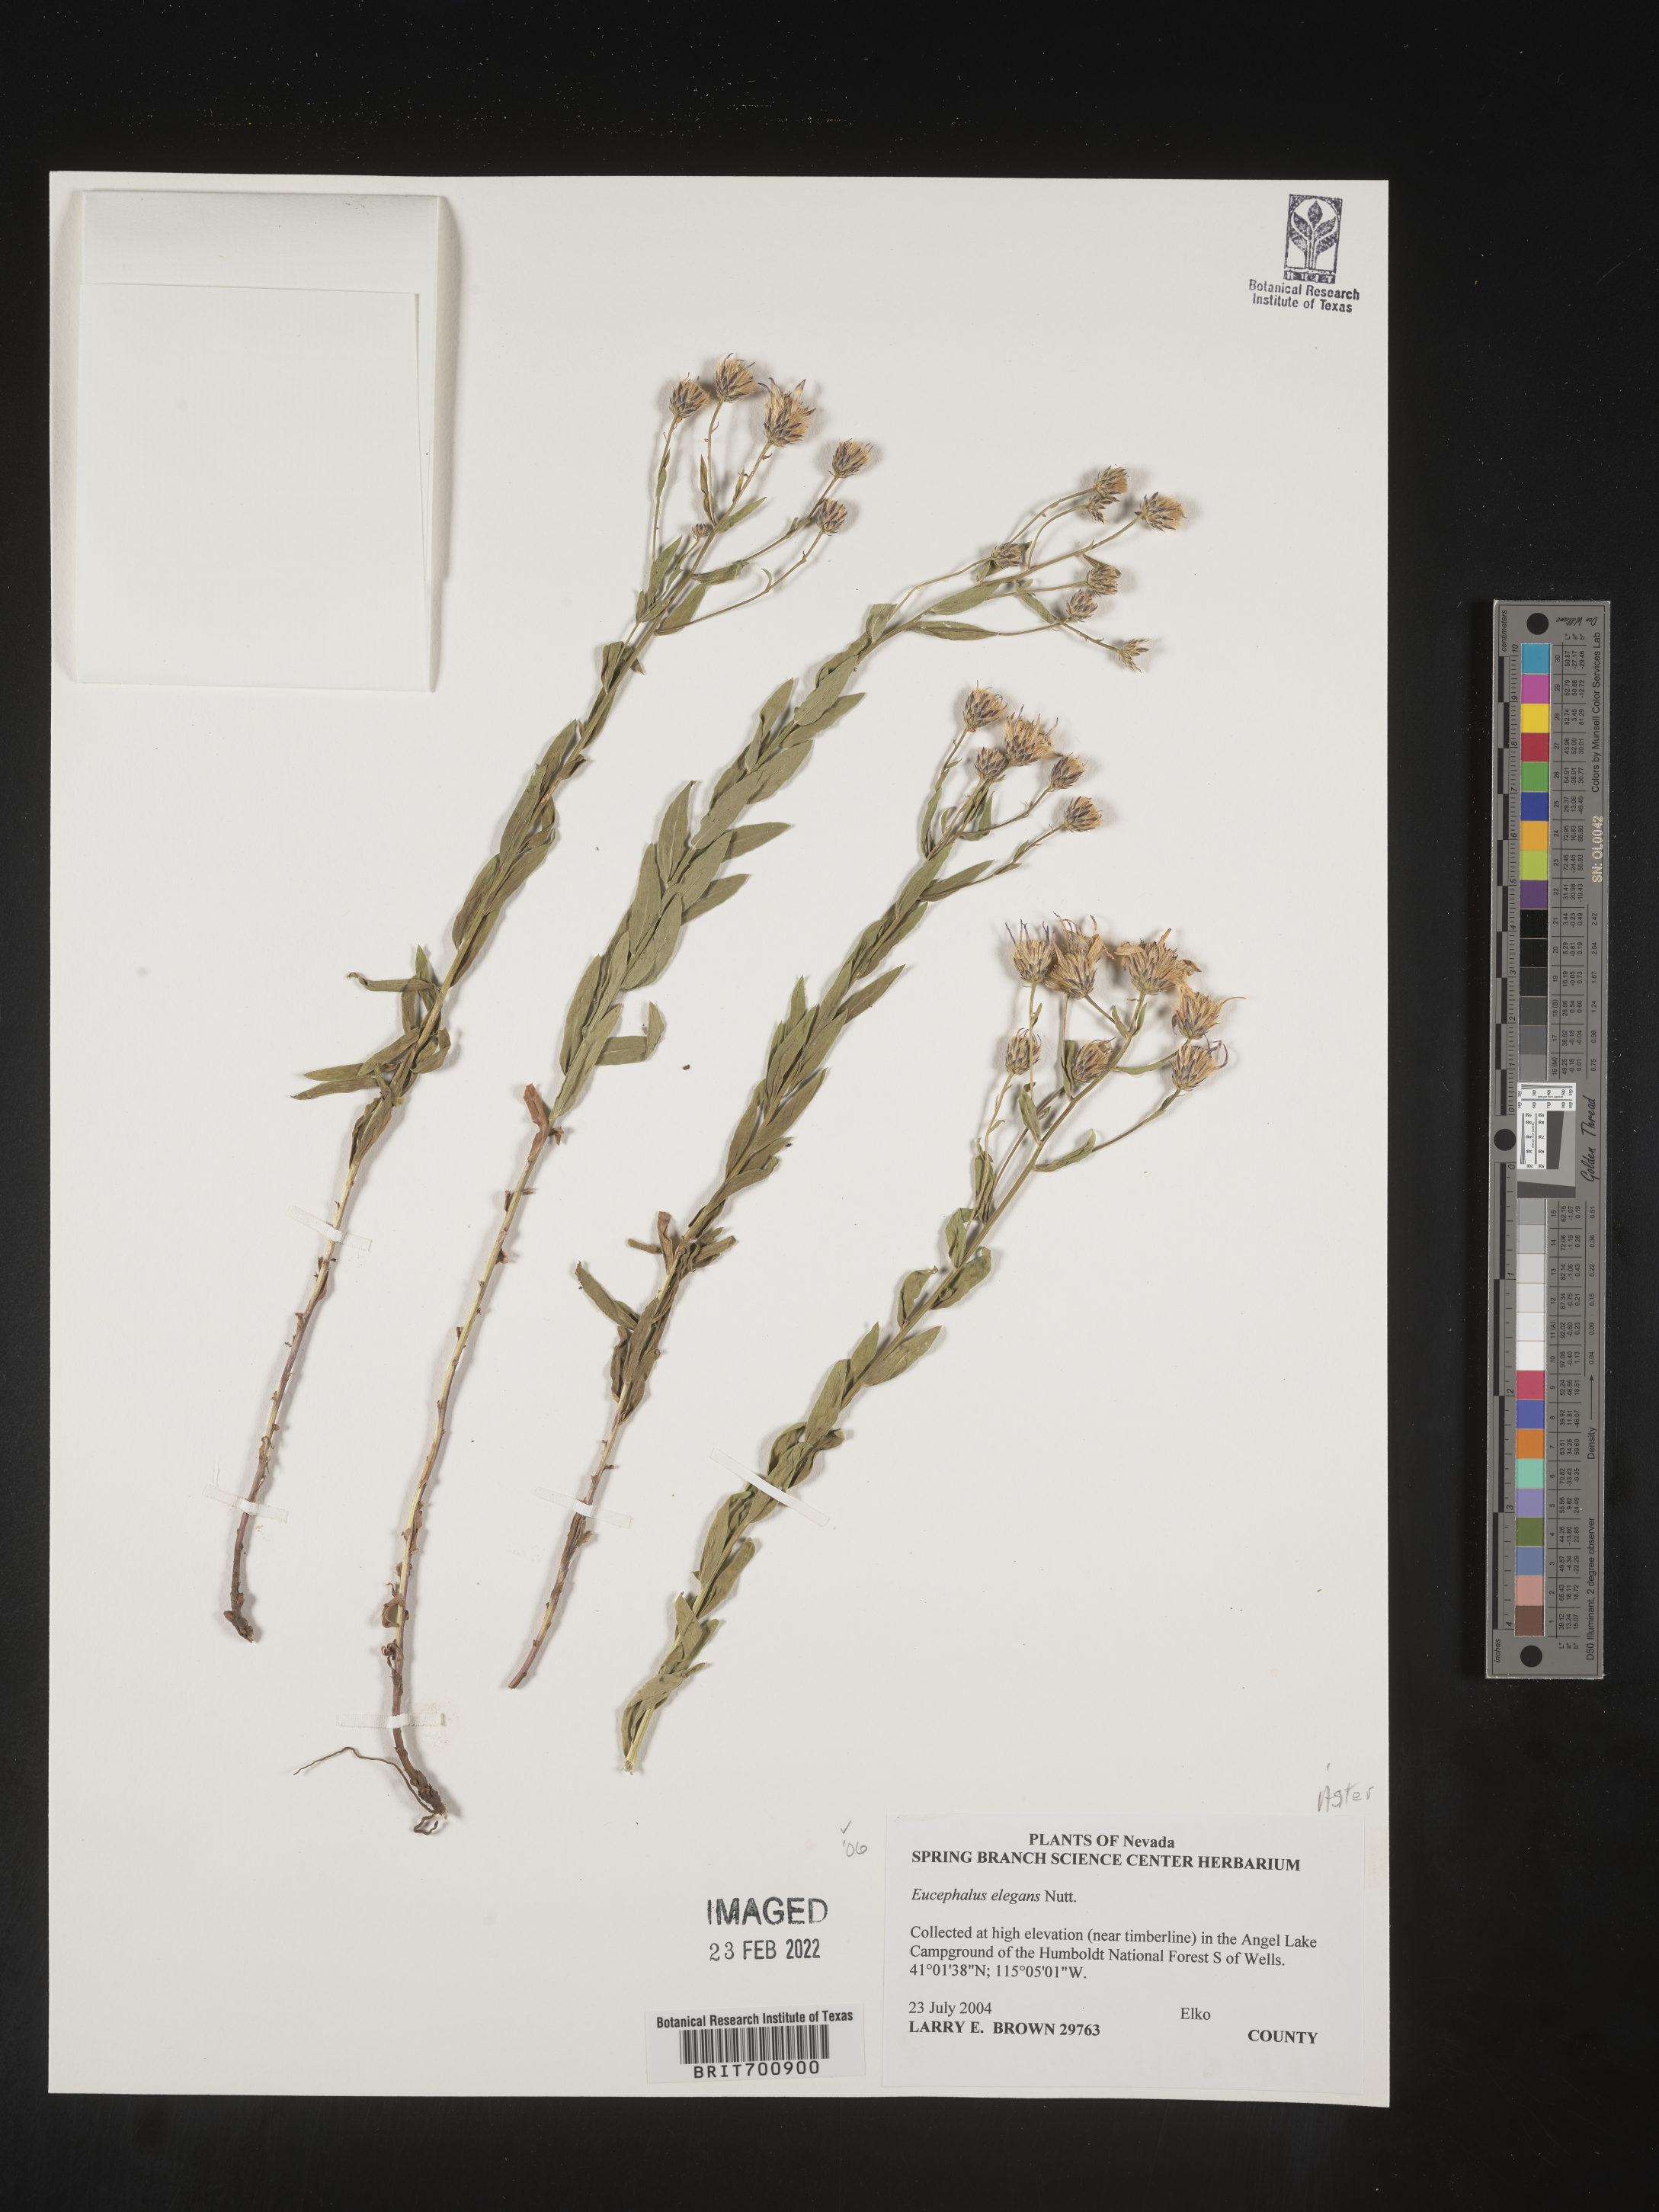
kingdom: Plantae
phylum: Tracheophyta
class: Magnoliopsida
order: Asterales
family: Asteraceae
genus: Doellingeria
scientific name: Doellingeria elegans
